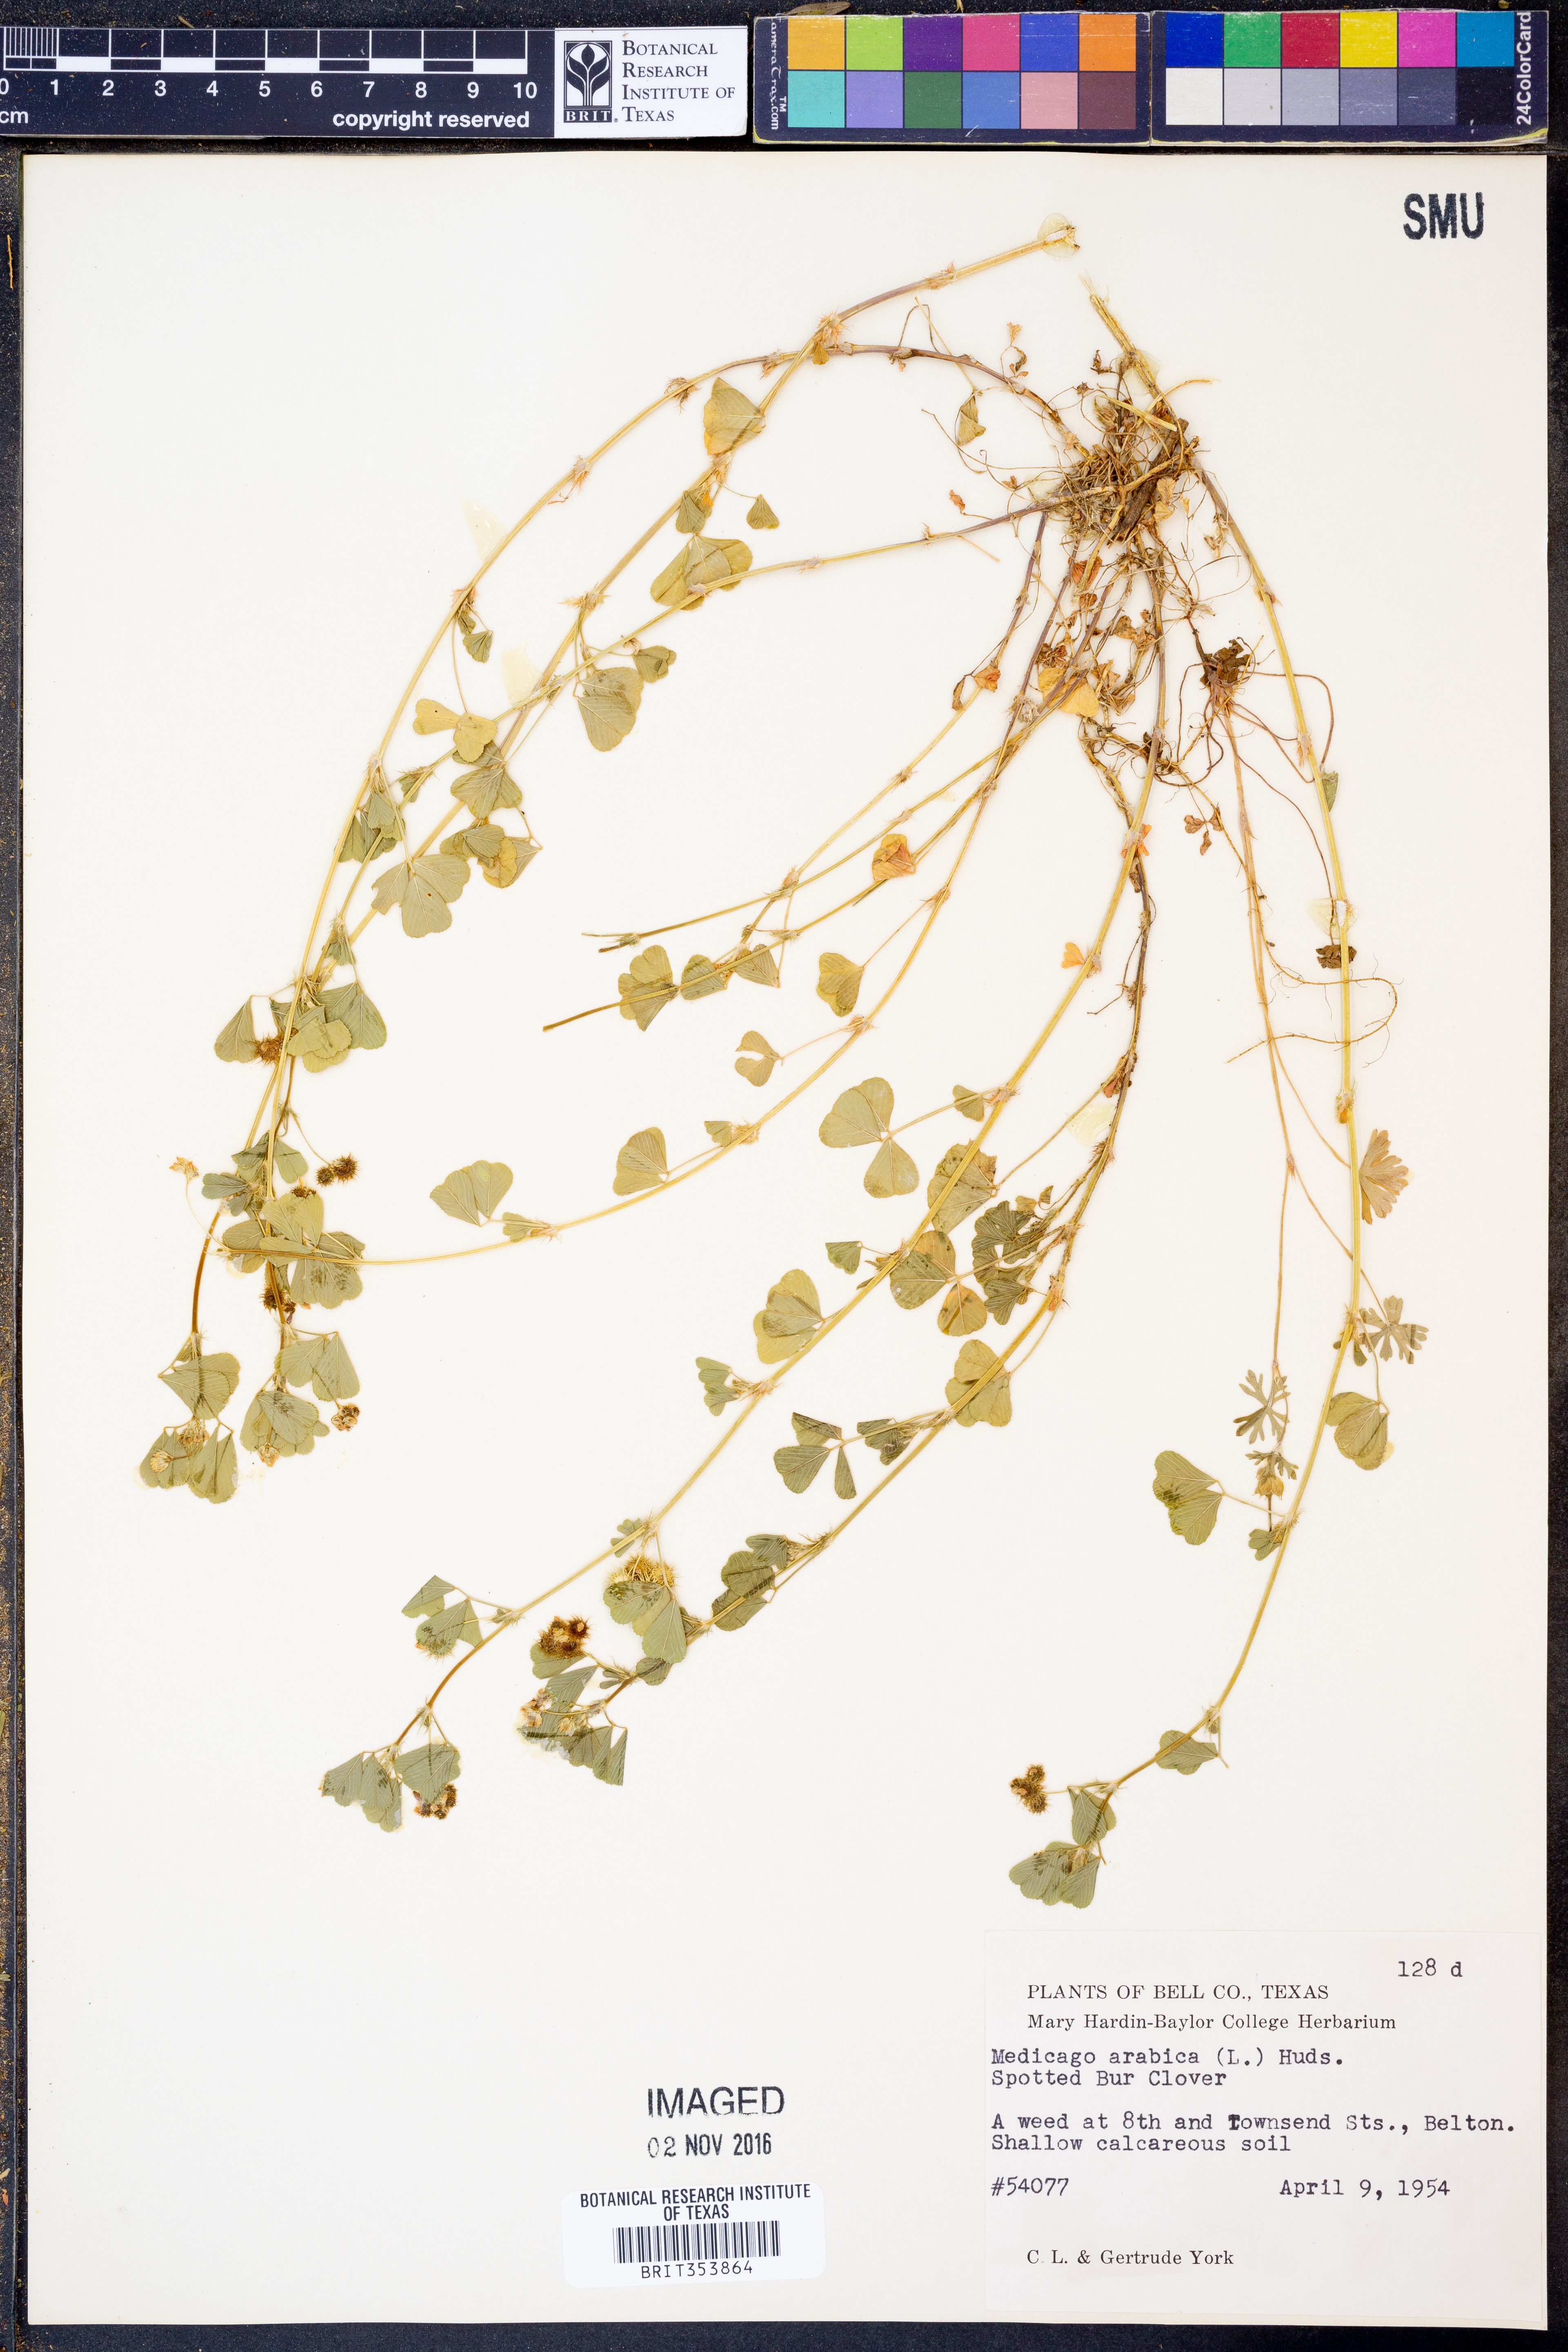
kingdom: Plantae
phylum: Tracheophyta
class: Magnoliopsida
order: Fabales
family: Fabaceae
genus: Medicago
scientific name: Medicago arabica
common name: Spotted medick
